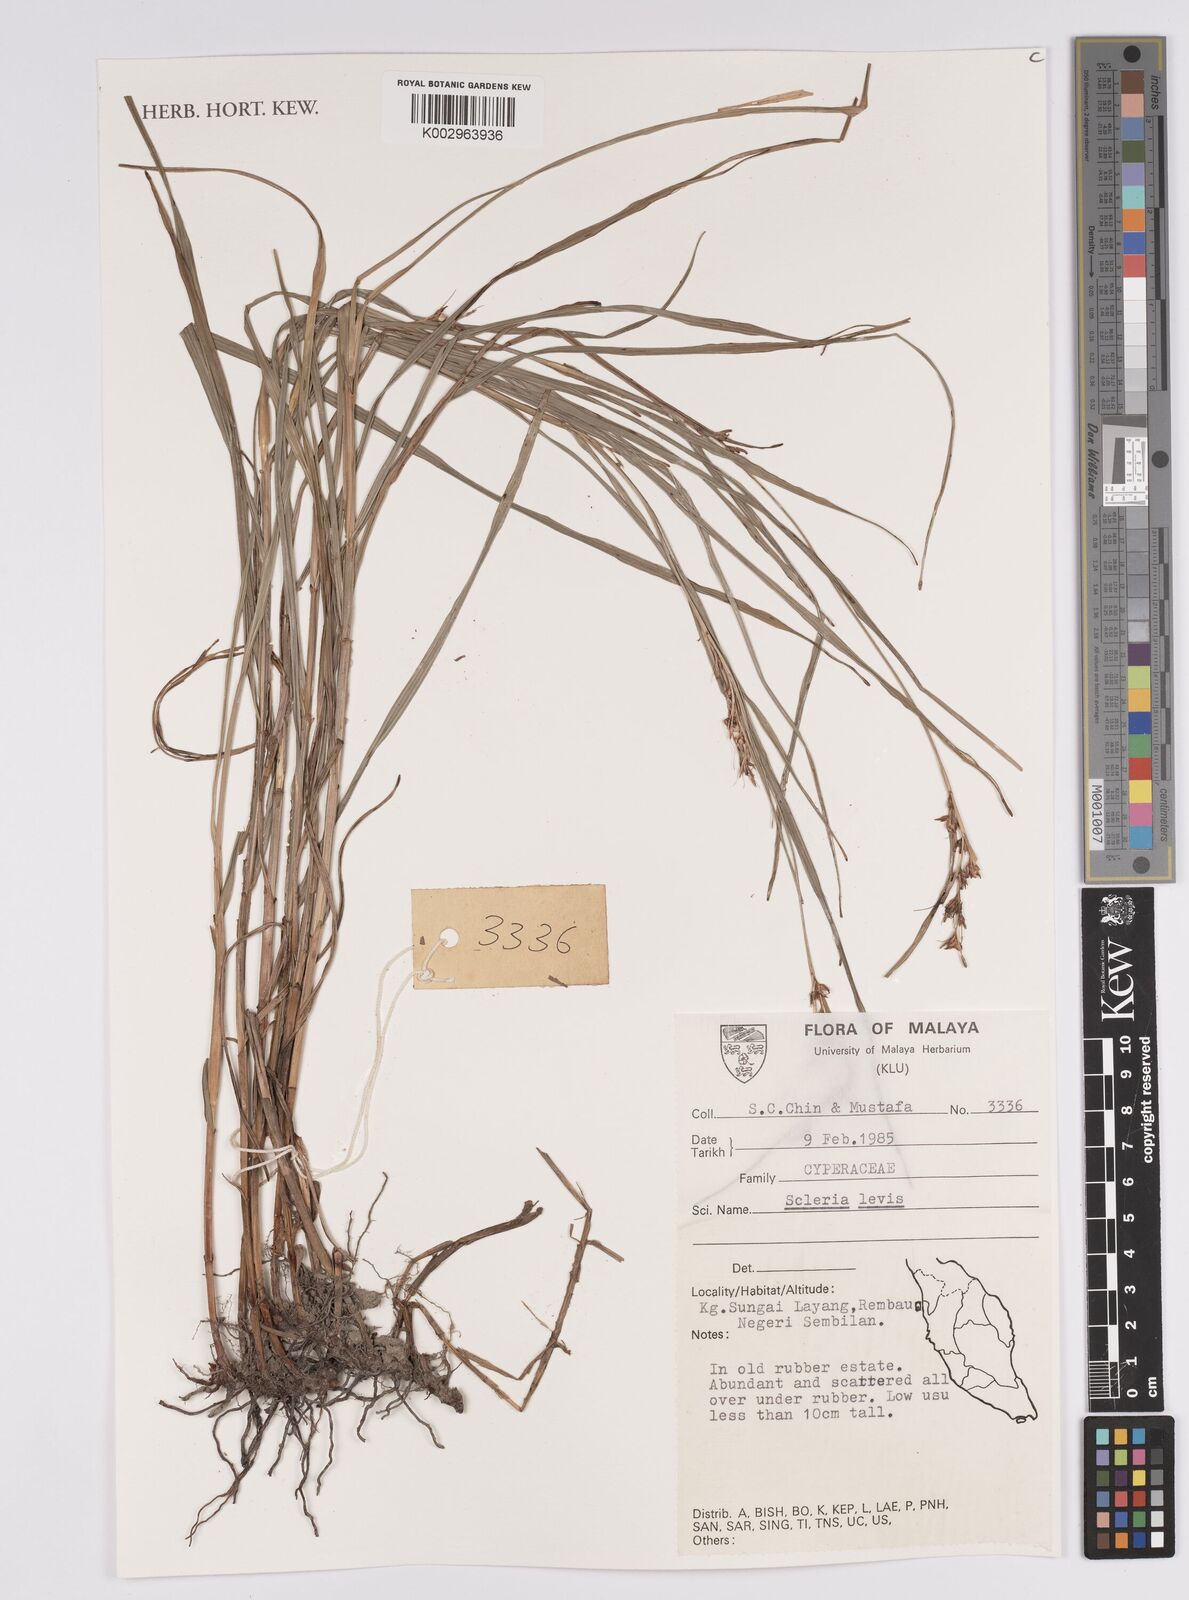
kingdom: Plantae
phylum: Tracheophyta
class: Liliopsida
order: Poales
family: Cyperaceae
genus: Scleria
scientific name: Scleria levis
